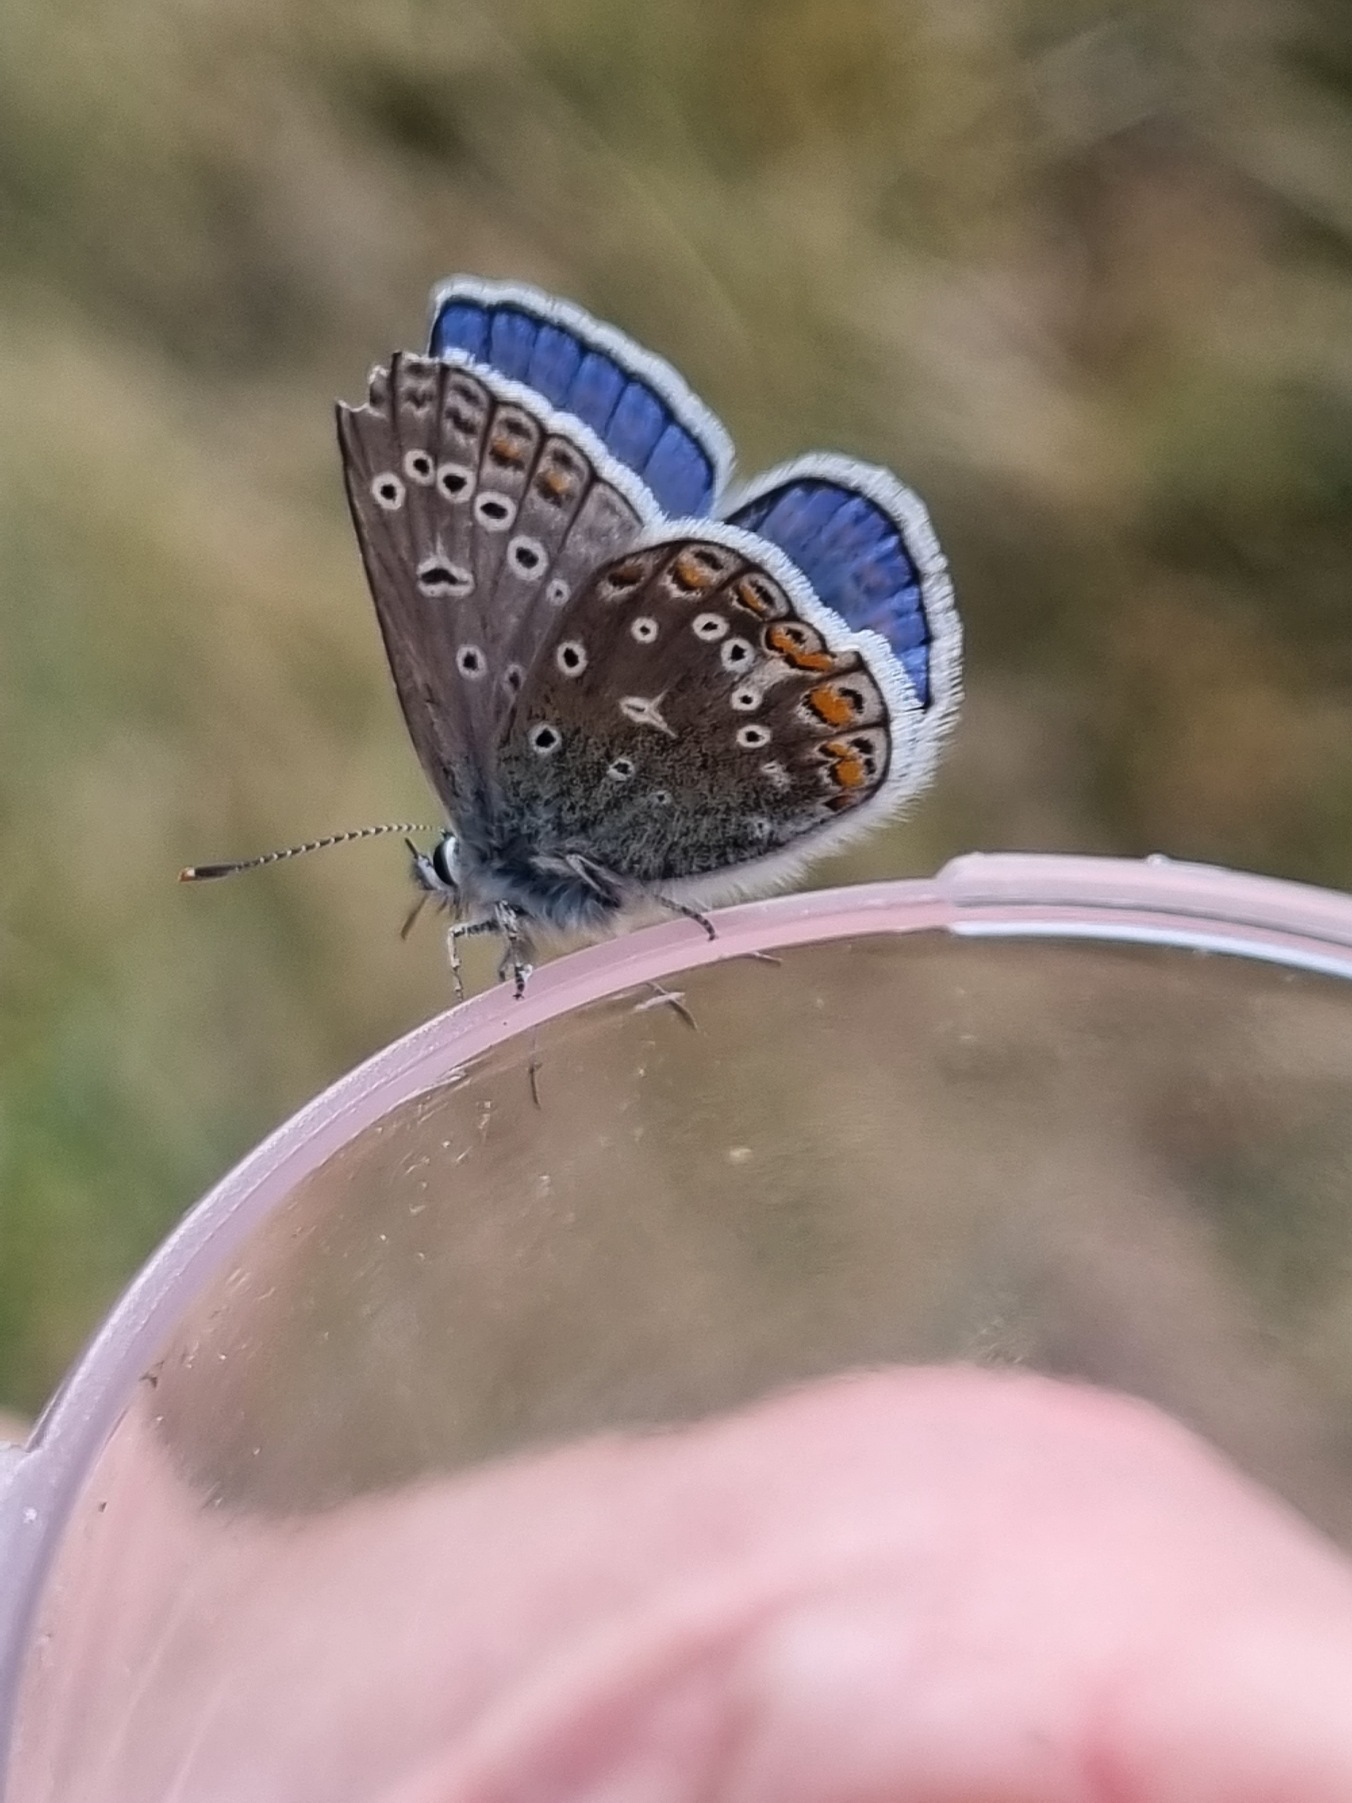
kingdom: Animalia
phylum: Arthropoda
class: Insecta
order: Lepidoptera
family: Lycaenidae
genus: Polyommatus
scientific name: Polyommatus icarus
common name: Almindelig blåfugl
